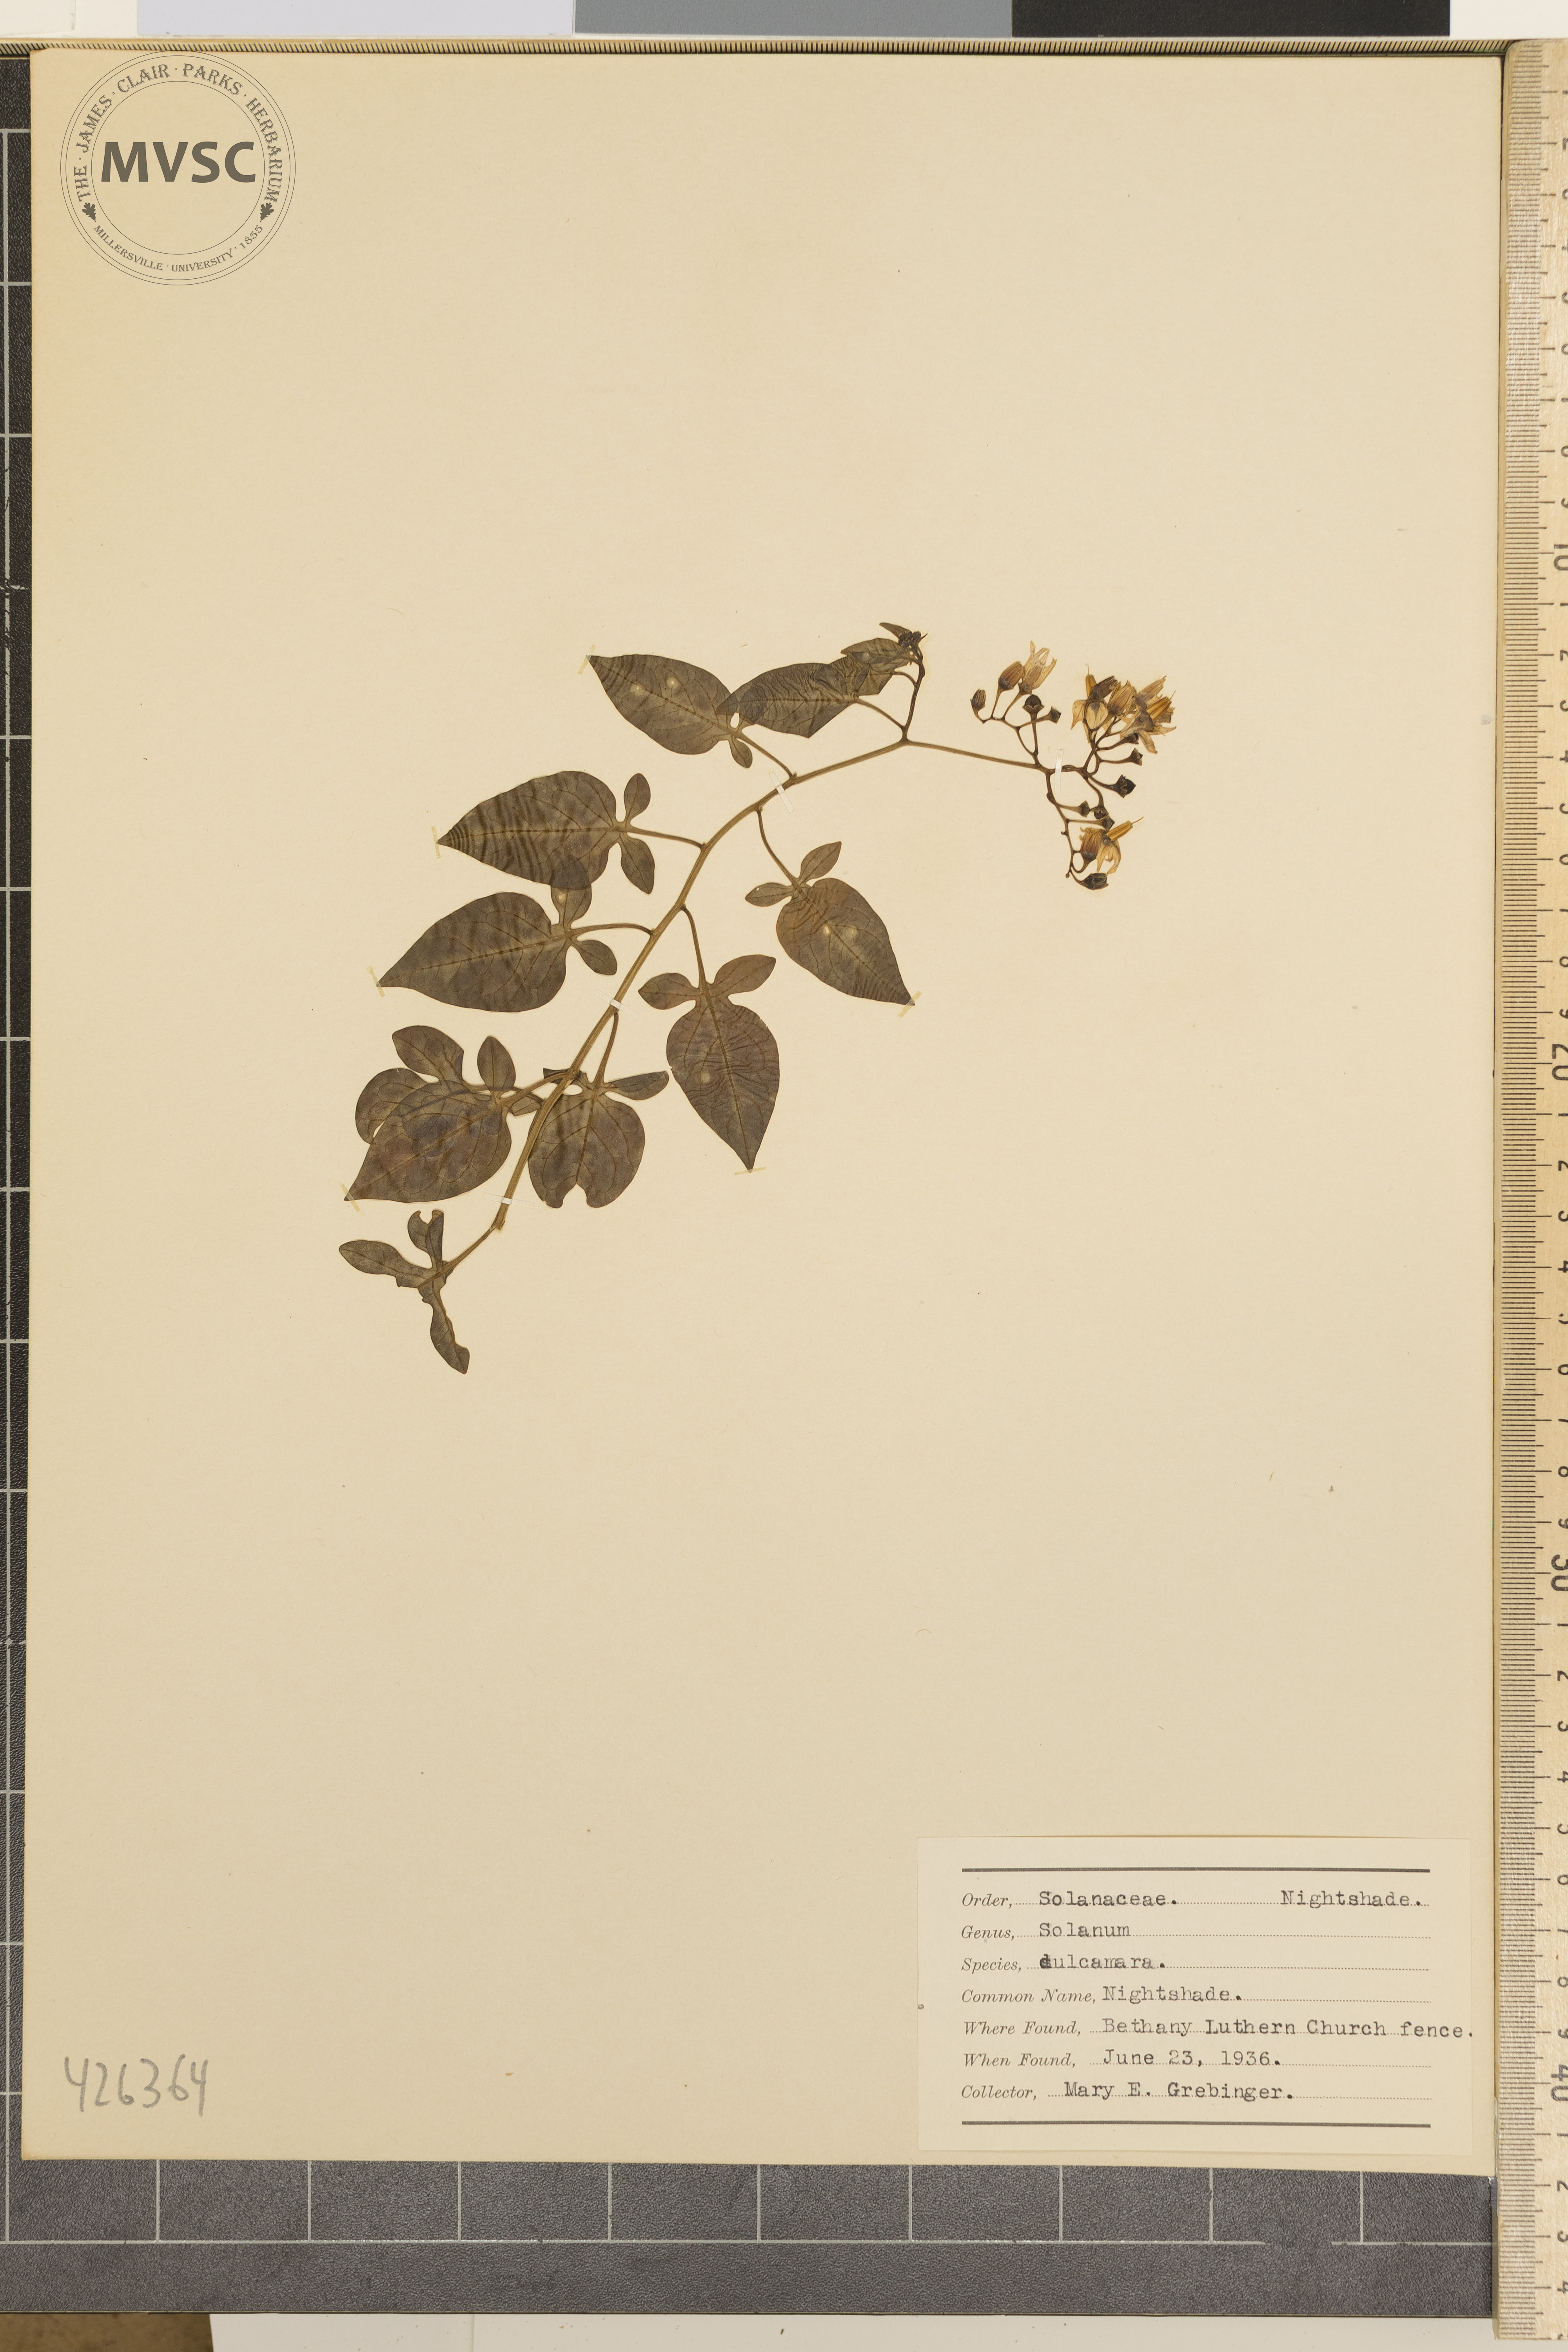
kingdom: Plantae
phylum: Tracheophyta
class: Magnoliopsida
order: Solanales
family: Solanaceae
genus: Solanum
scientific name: Solanum dulcamara
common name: Nightshade
